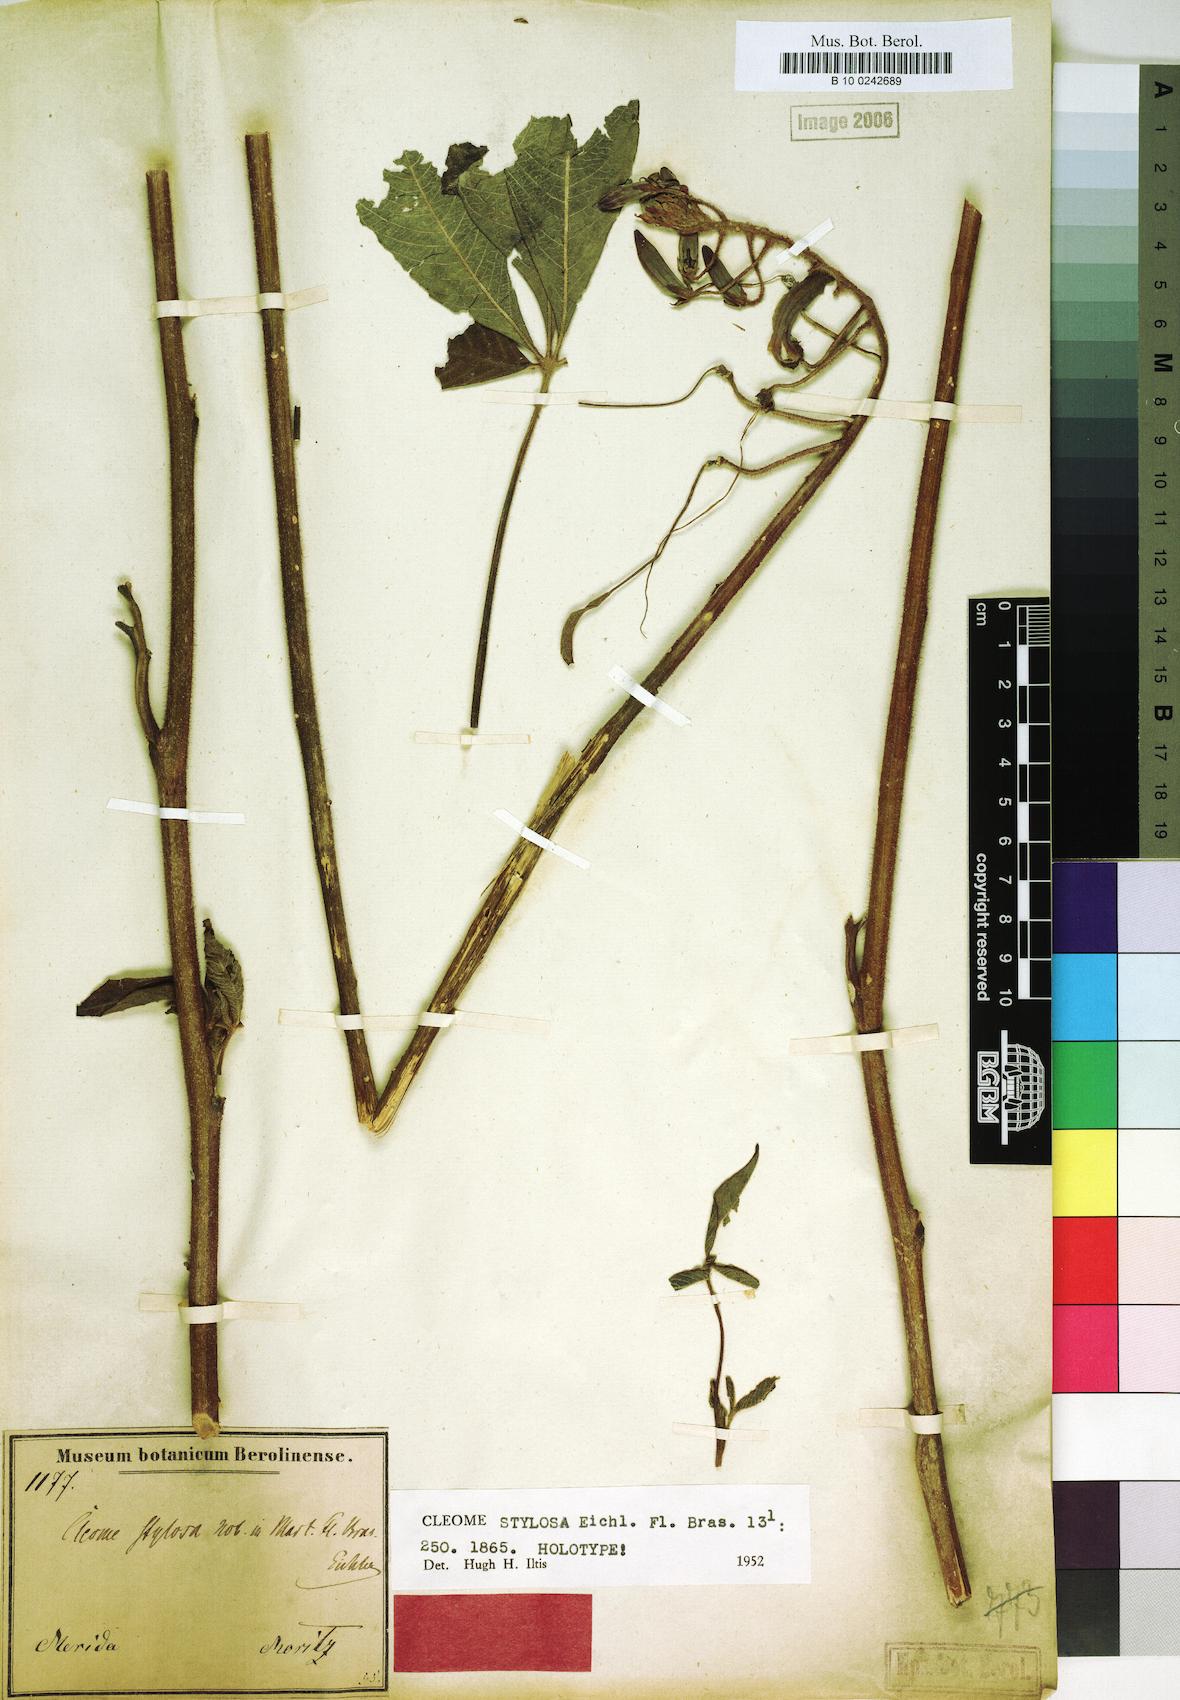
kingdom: Plantae
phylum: Tracheophyta
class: Magnoliopsida
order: Brassicales
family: Cleomaceae
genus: Pterocleome
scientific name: Pterocleome stylosa
